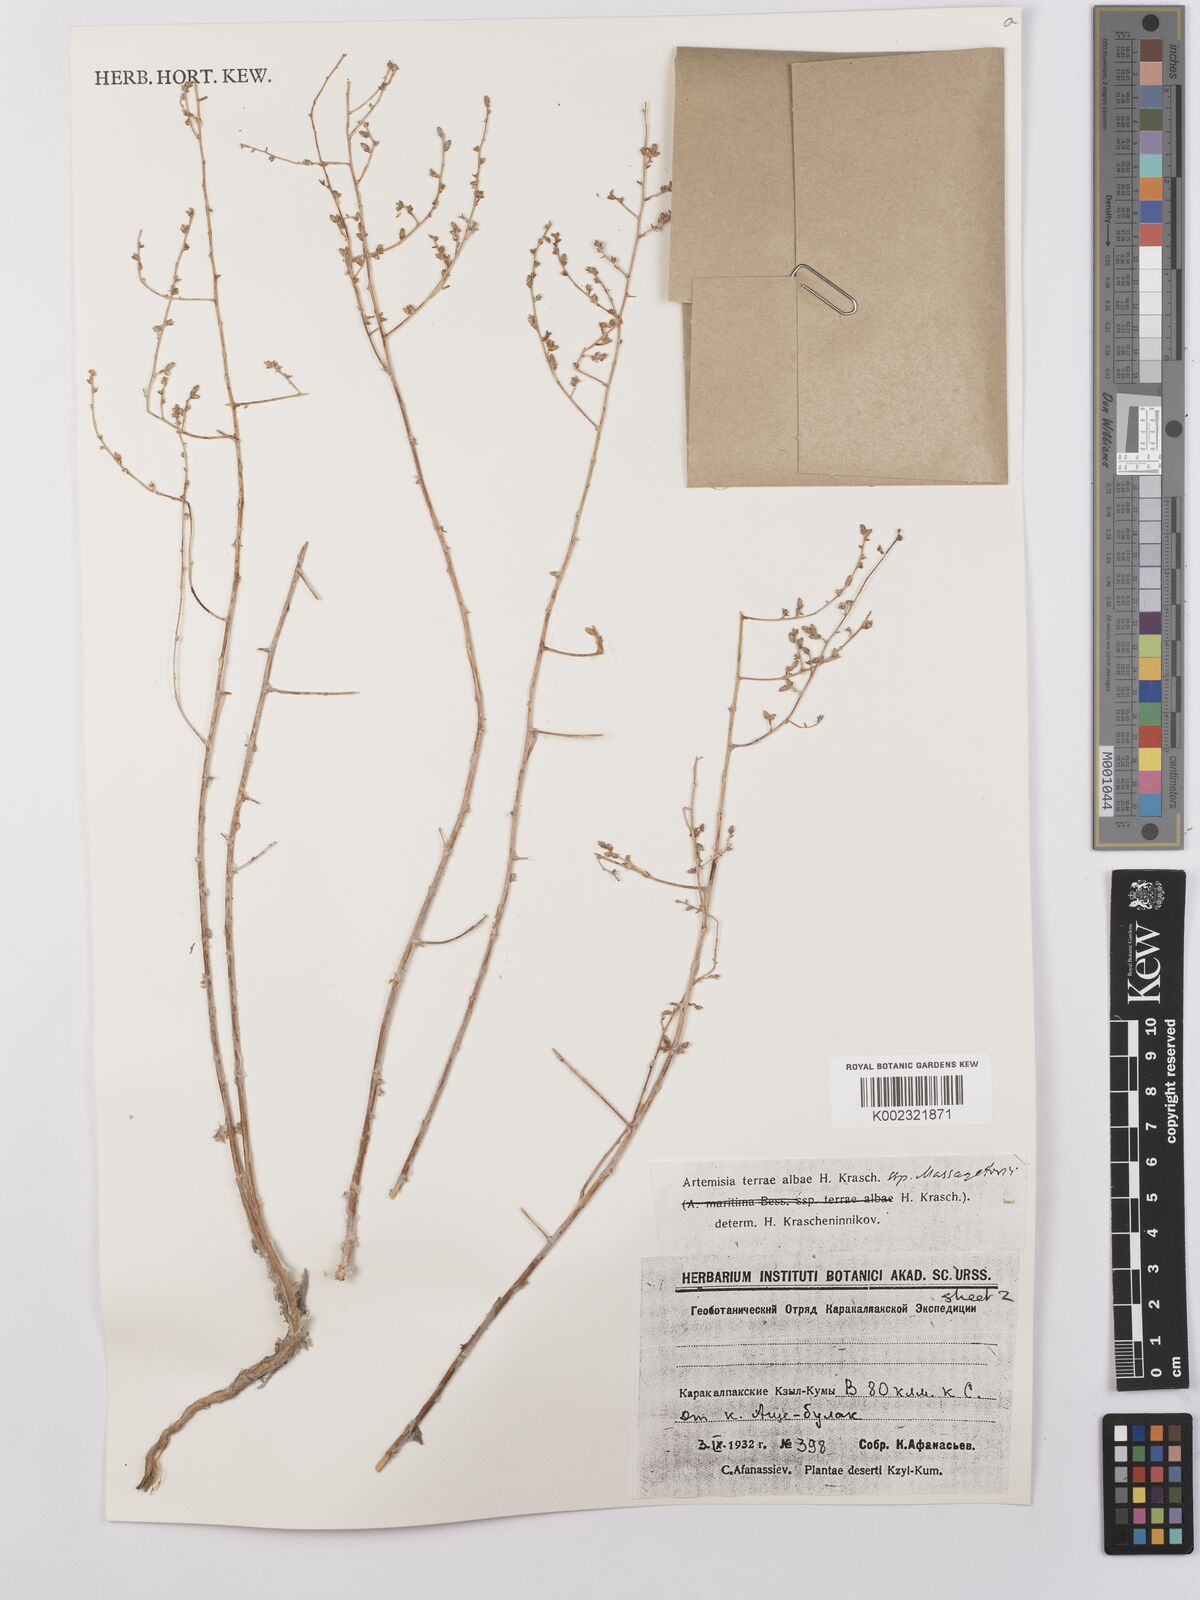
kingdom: Plantae
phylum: Tracheophyta
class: Magnoliopsida
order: Asterales
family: Asteraceae
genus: Artemisia
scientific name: Artemisia terrae-albae
